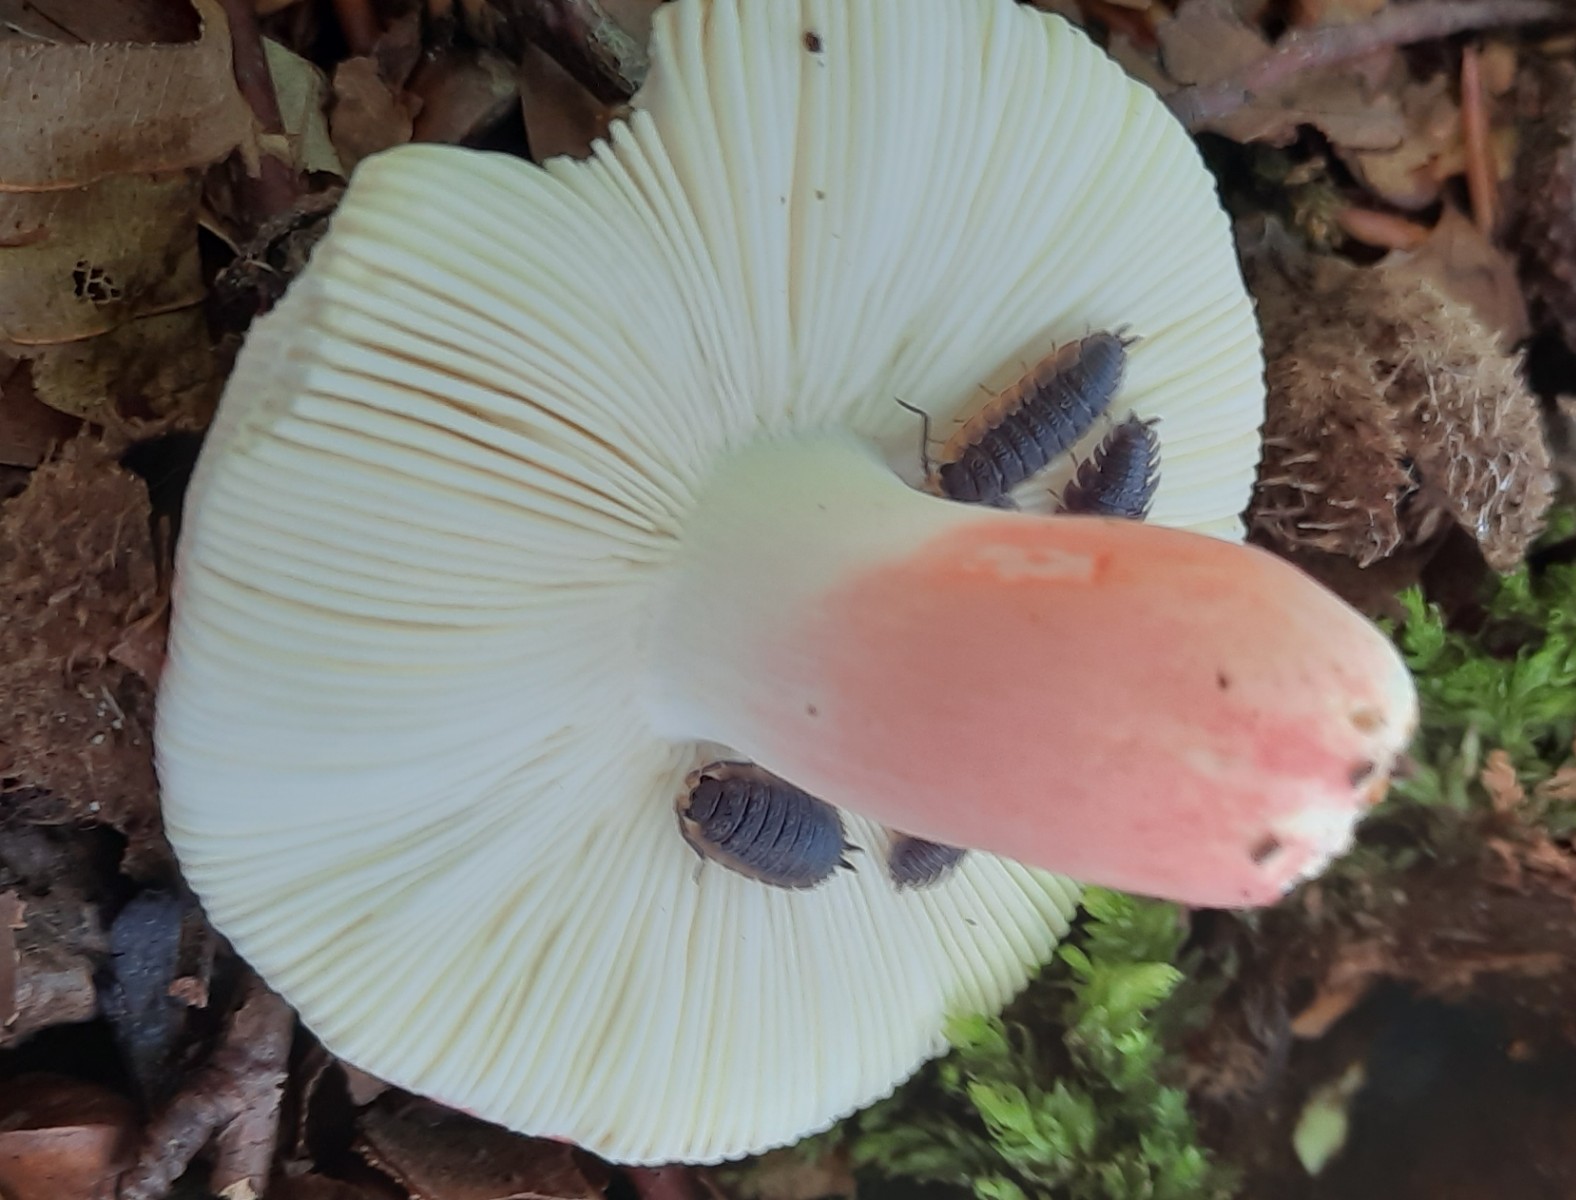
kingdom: Fungi
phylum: Basidiomycota
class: Agaricomycetes
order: Russulales
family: Russulaceae
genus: Russula
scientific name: Russula rosea
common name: fastkødet skørhat
